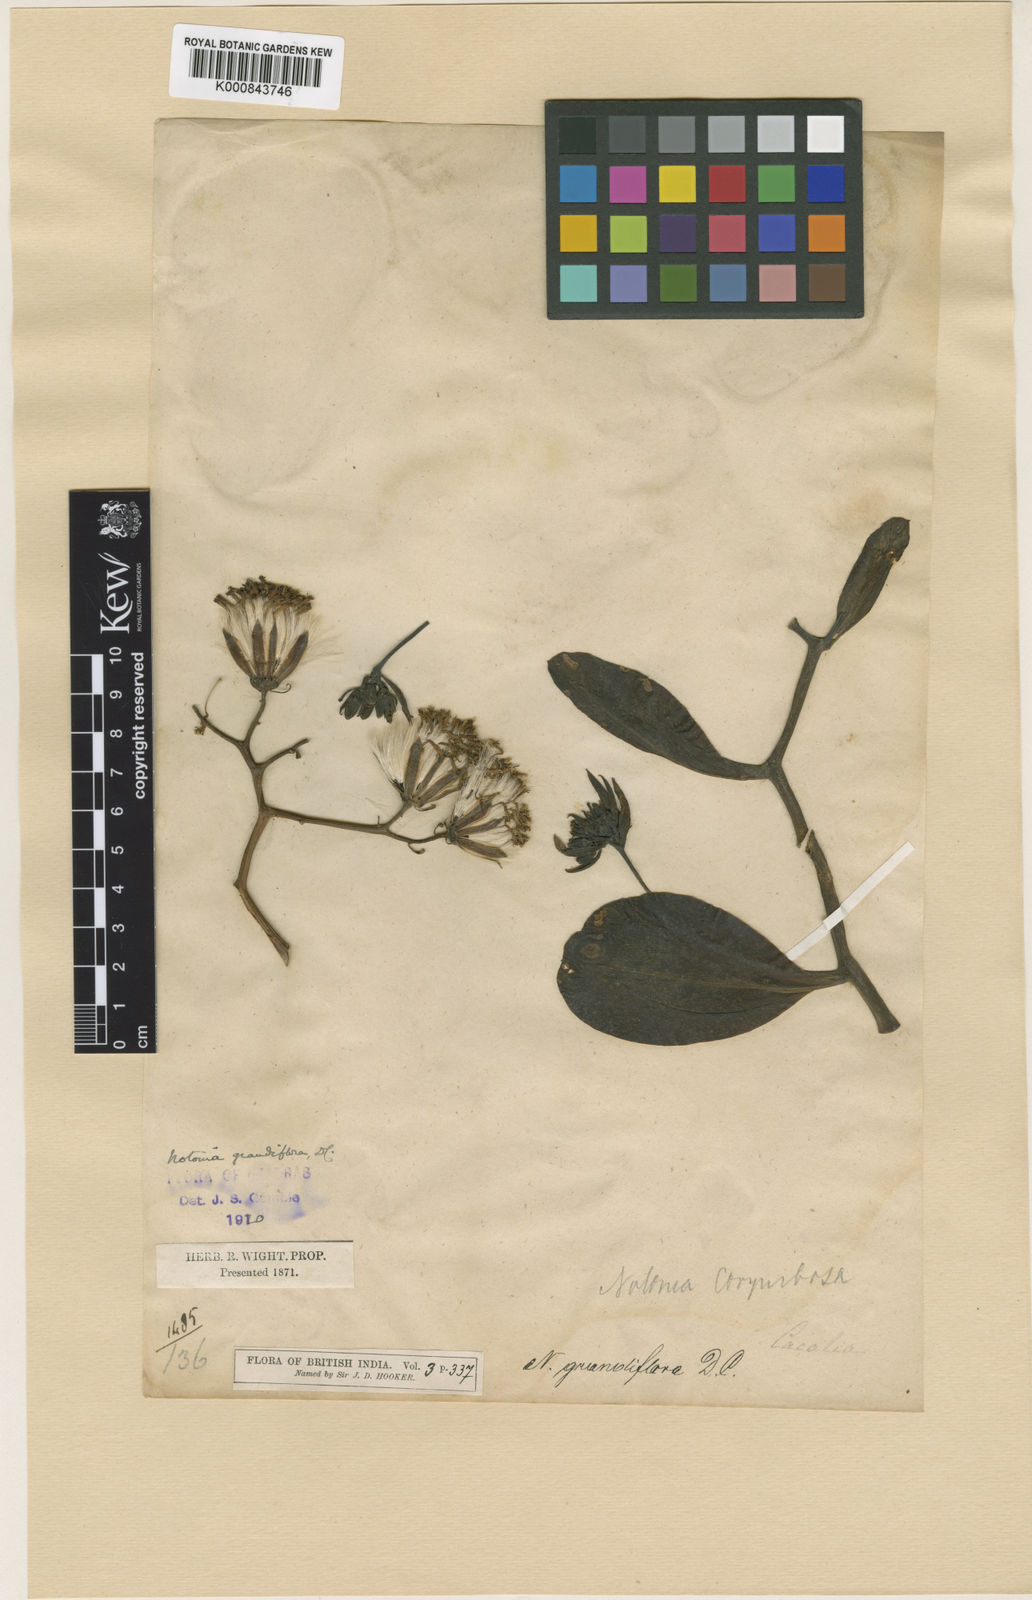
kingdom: Plantae
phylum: Tracheophyta
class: Magnoliopsida
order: Asterales
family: Asteraceae
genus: Kleinia
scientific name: Kleinia grandiflora
